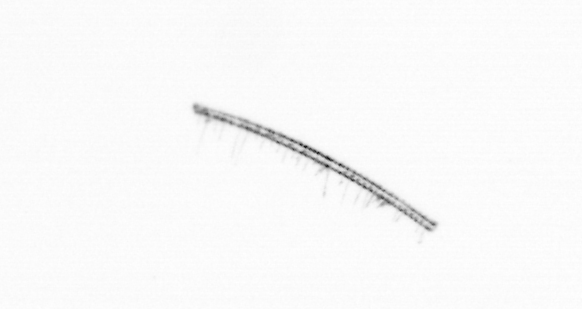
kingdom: Chromista
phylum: Ochrophyta
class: Bacillariophyceae
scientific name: Bacillariophyceae
